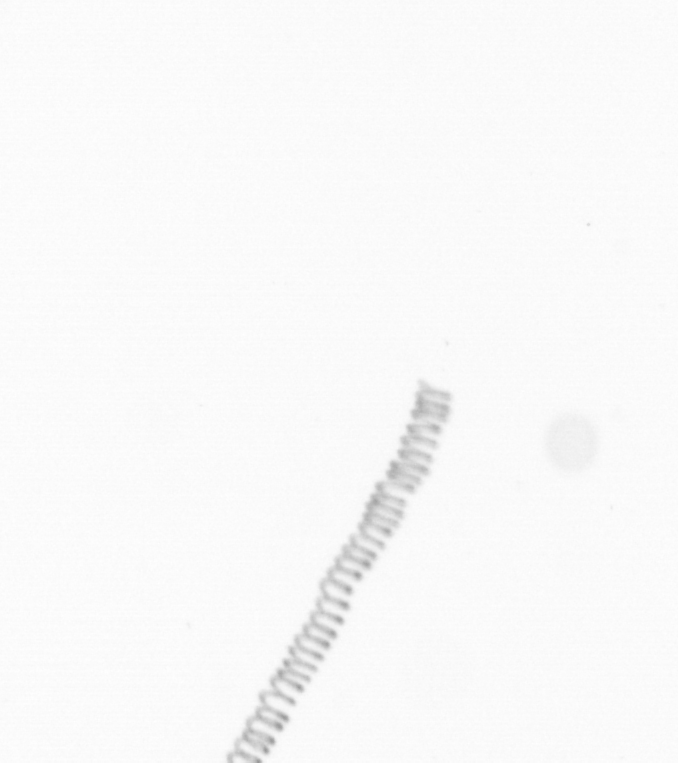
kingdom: Chromista
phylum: Ochrophyta
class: Bacillariophyceae
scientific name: Bacillariophyceae
